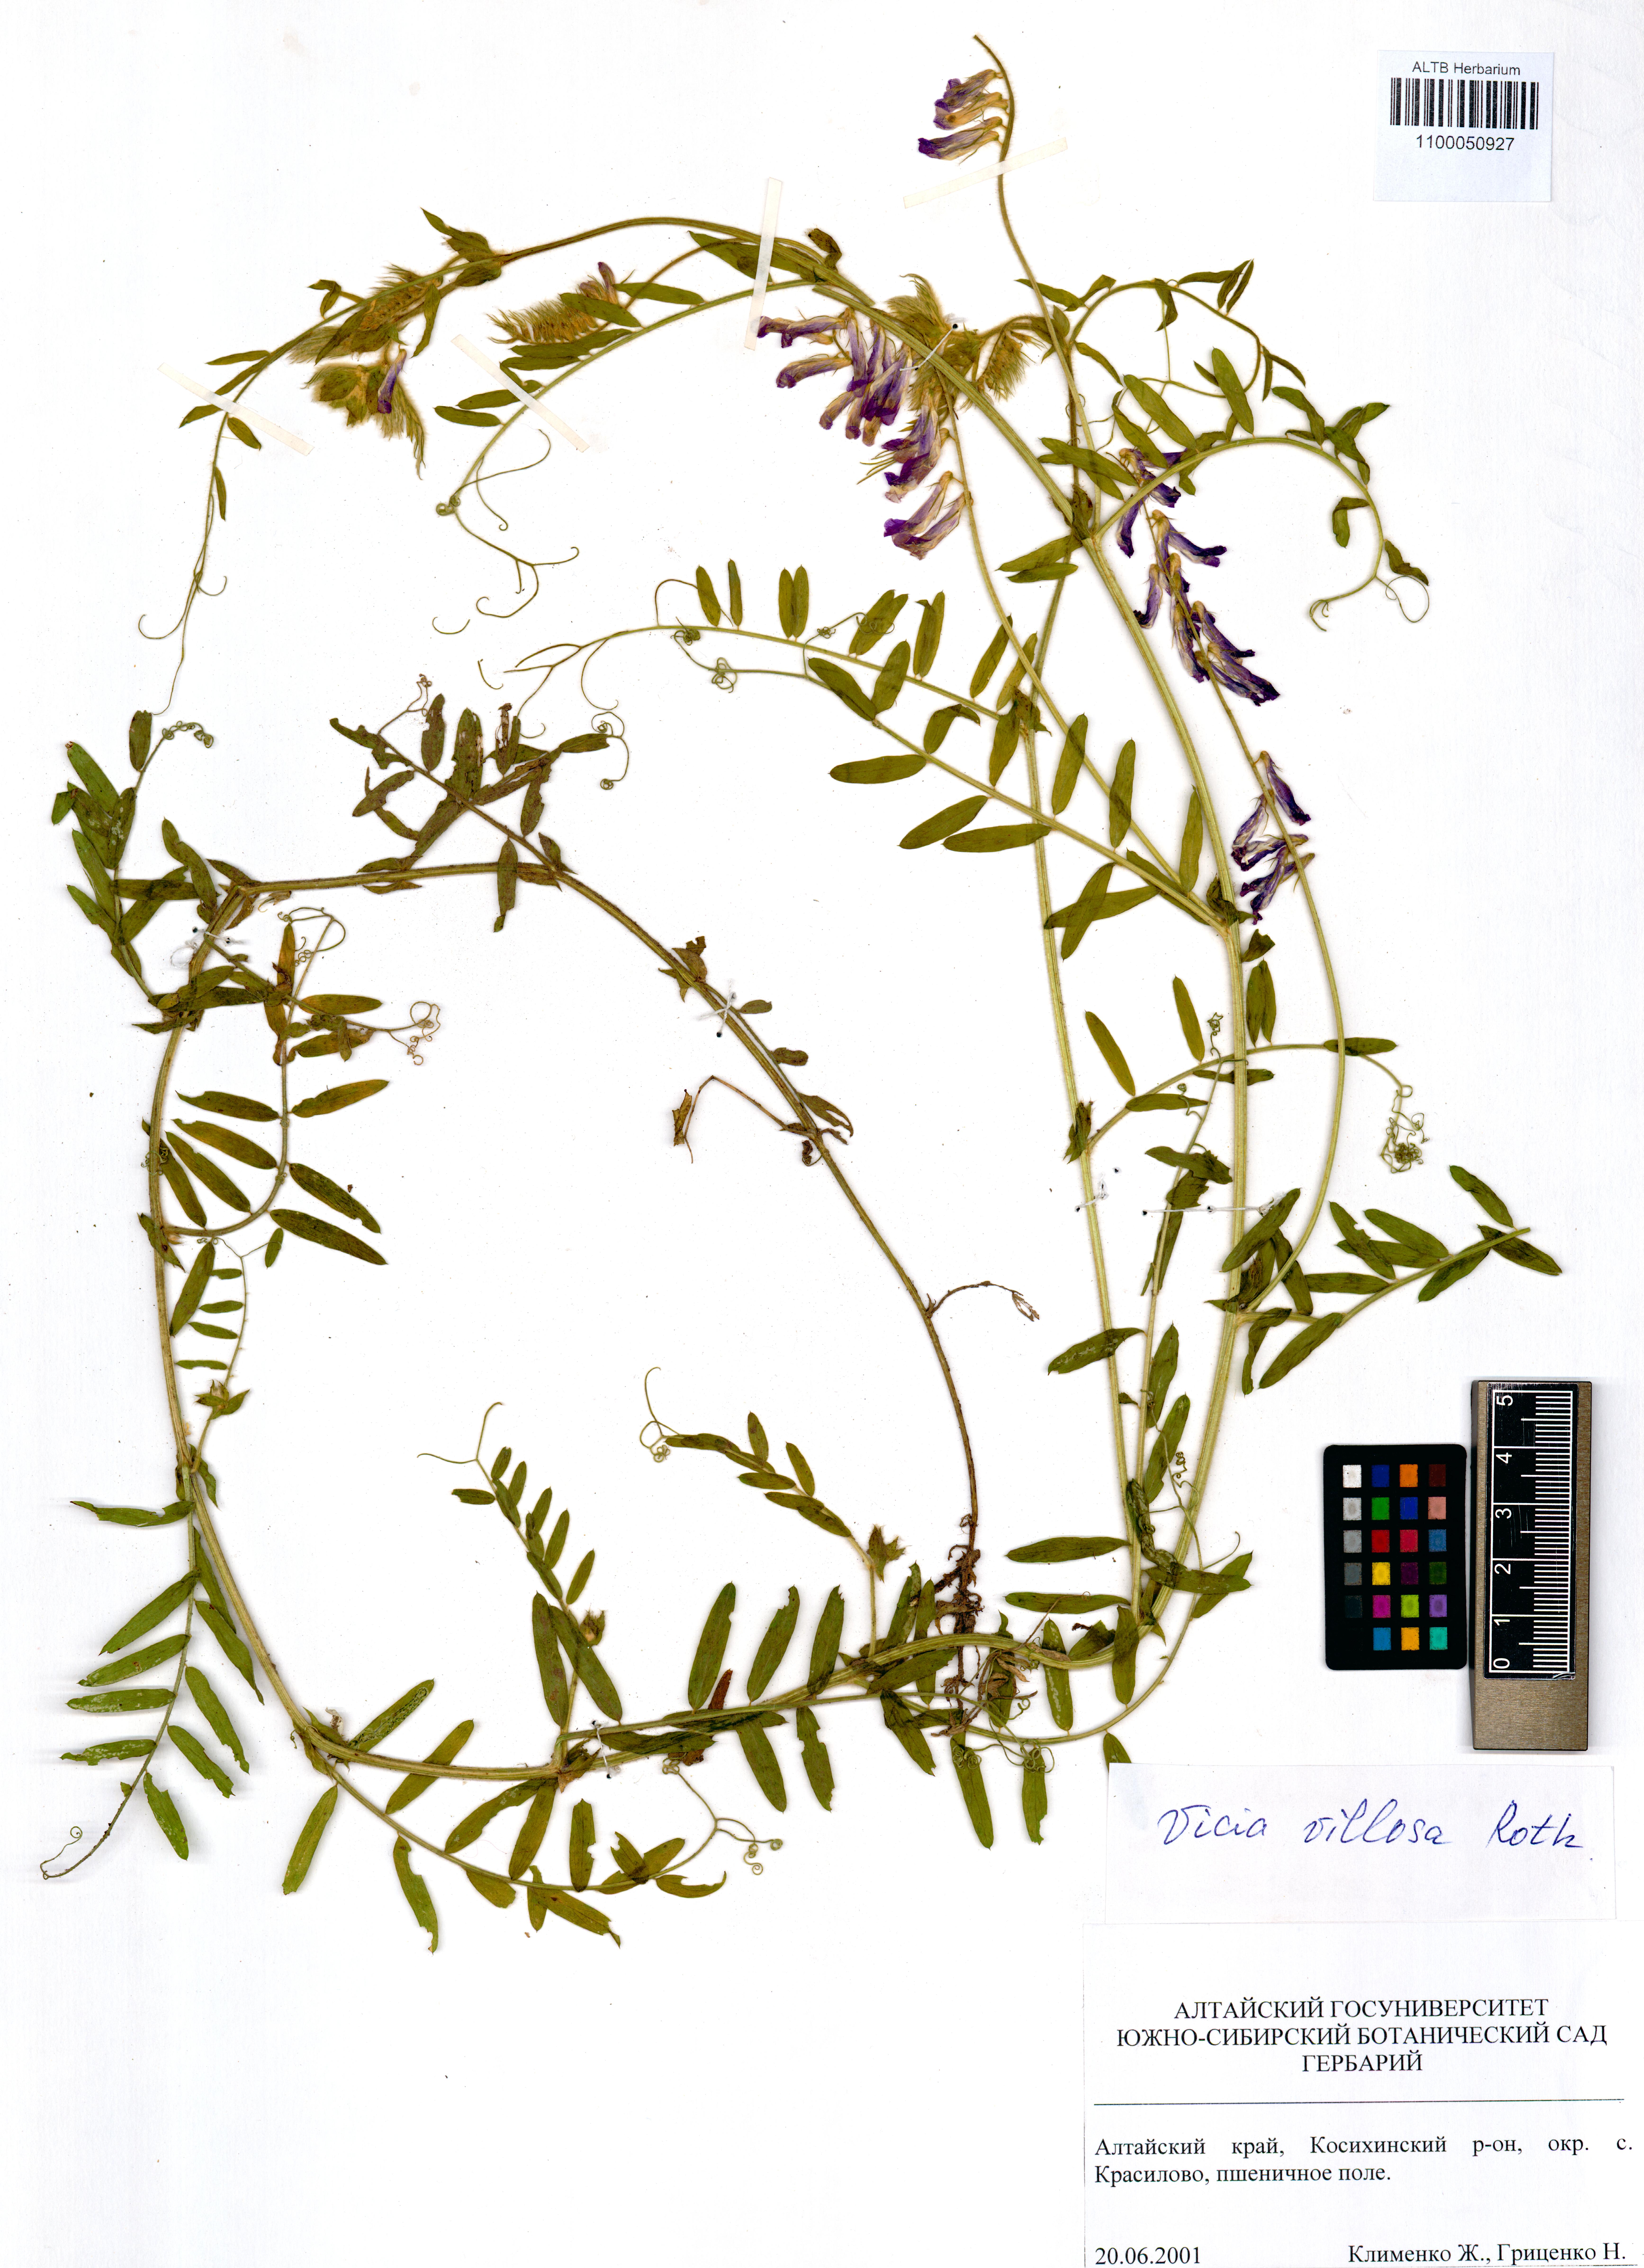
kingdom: Plantae
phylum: Tracheophyta
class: Magnoliopsida
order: Fabales
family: Fabaceae
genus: Vicia
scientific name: Vicia villosa
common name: Fodder vetch
